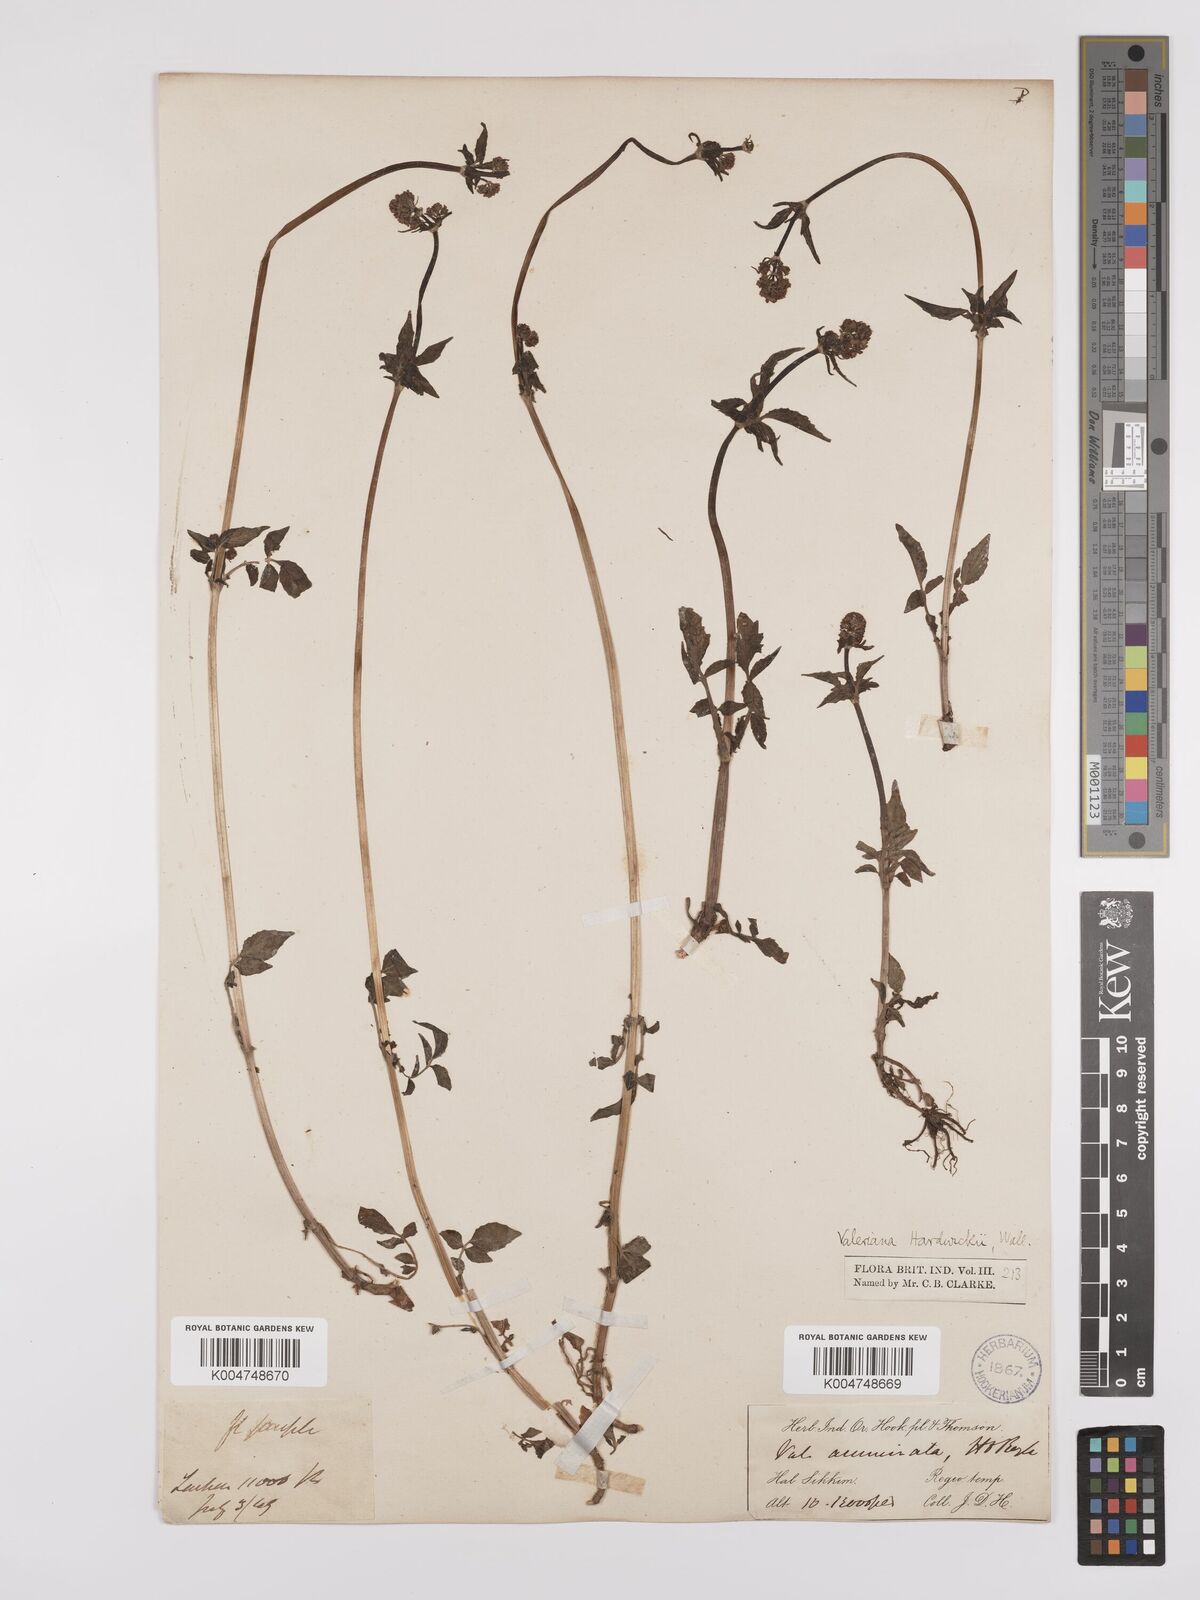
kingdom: Plantae
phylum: Tracheophyta
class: Magnoliopsida
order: Dipsacales
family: Caprifoliaceae
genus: Valeriana
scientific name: Valeriana hardwickei
